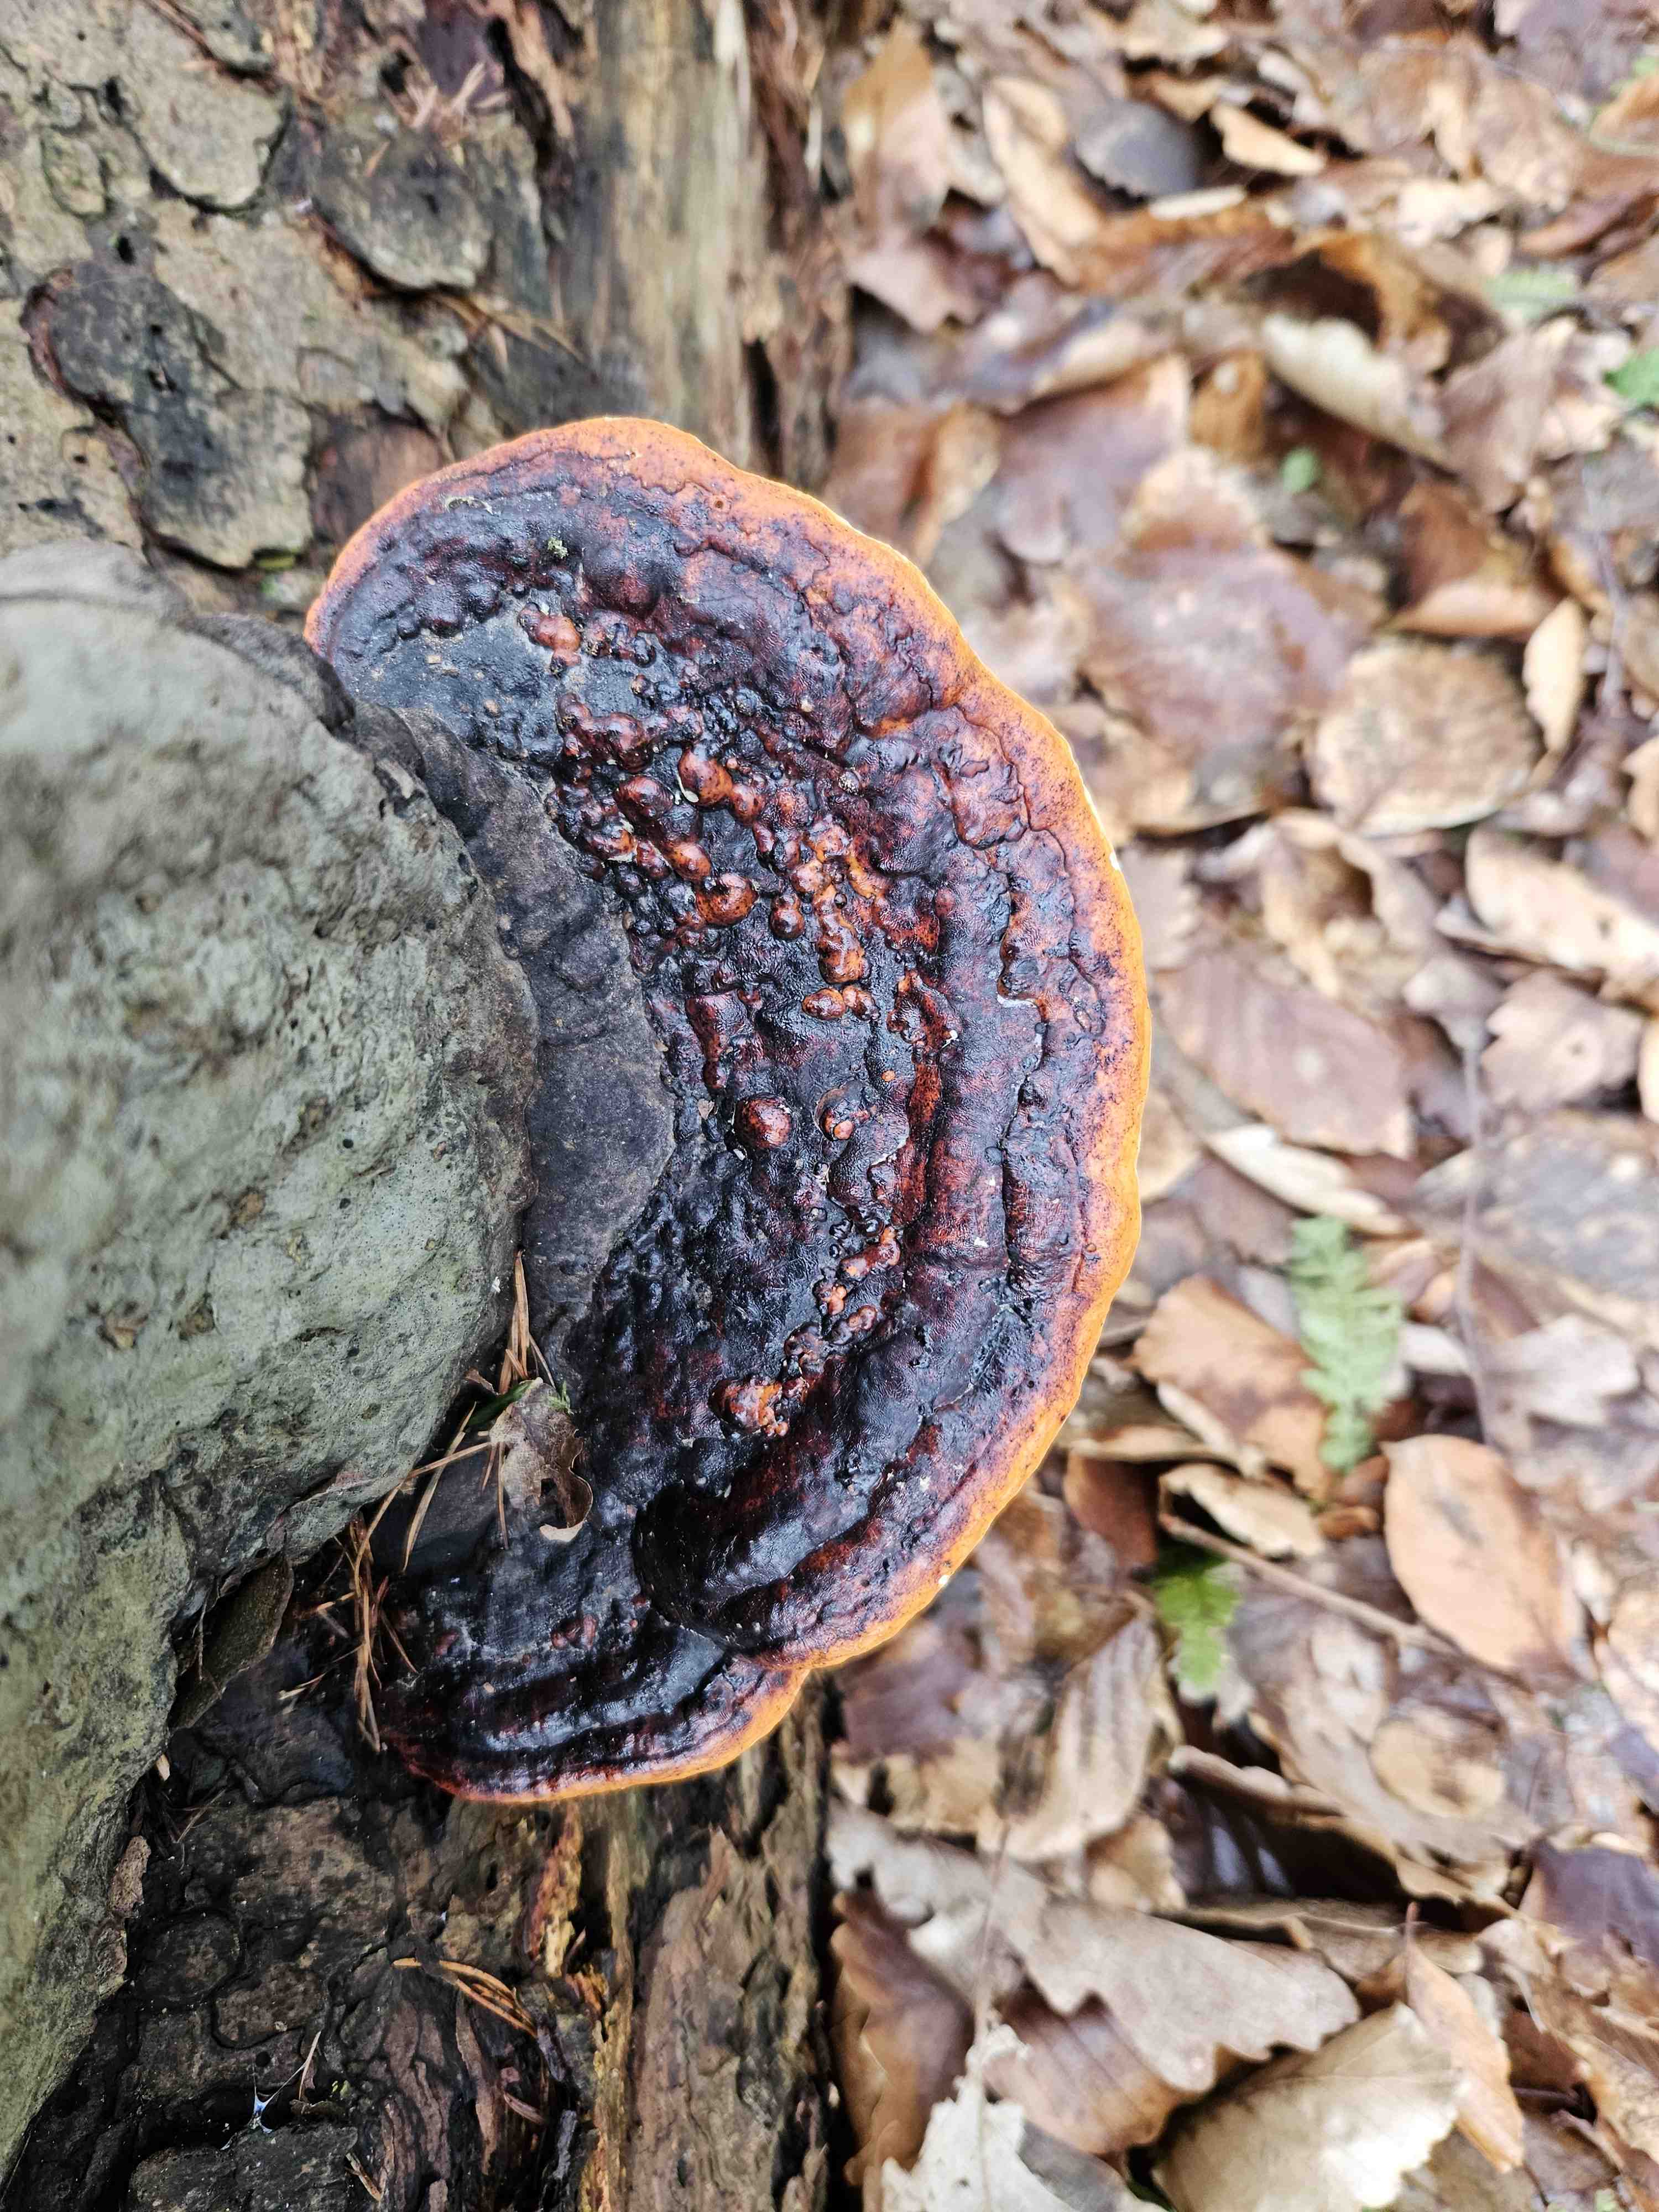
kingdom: Fungi
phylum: Basidiomycota
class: Agaricomycetes
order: Polyporales
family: Fomitopsidaceae
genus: Fomitopsis
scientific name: Fomitopsis pinicola
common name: randbæltet hovporesvamp
